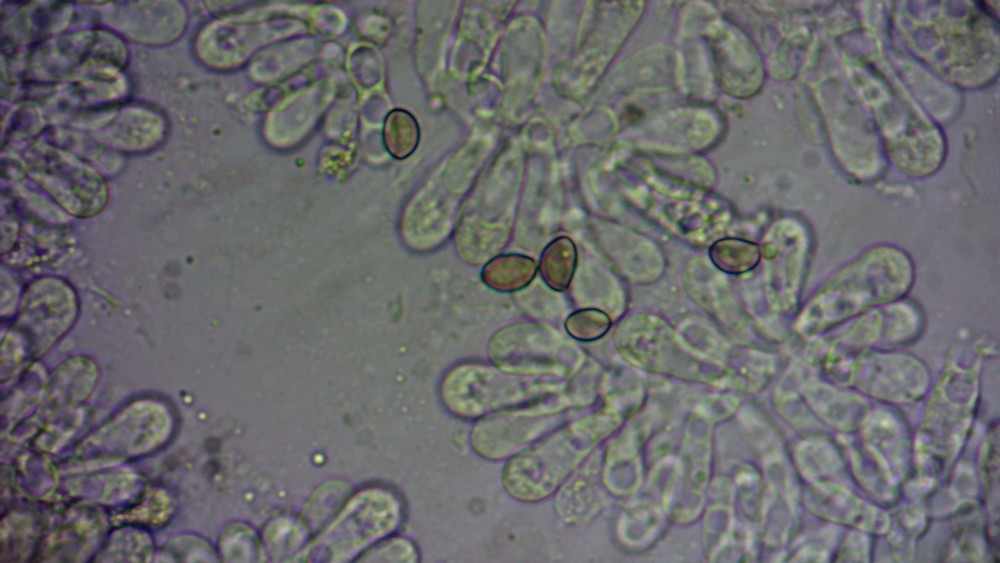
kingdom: Fungi
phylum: Basidiomycota
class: Agaricomycetes
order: Agaricales
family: Crepidotaceae
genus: Crepidotus
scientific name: Crepidotus mollis
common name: blød muslingesvamp
